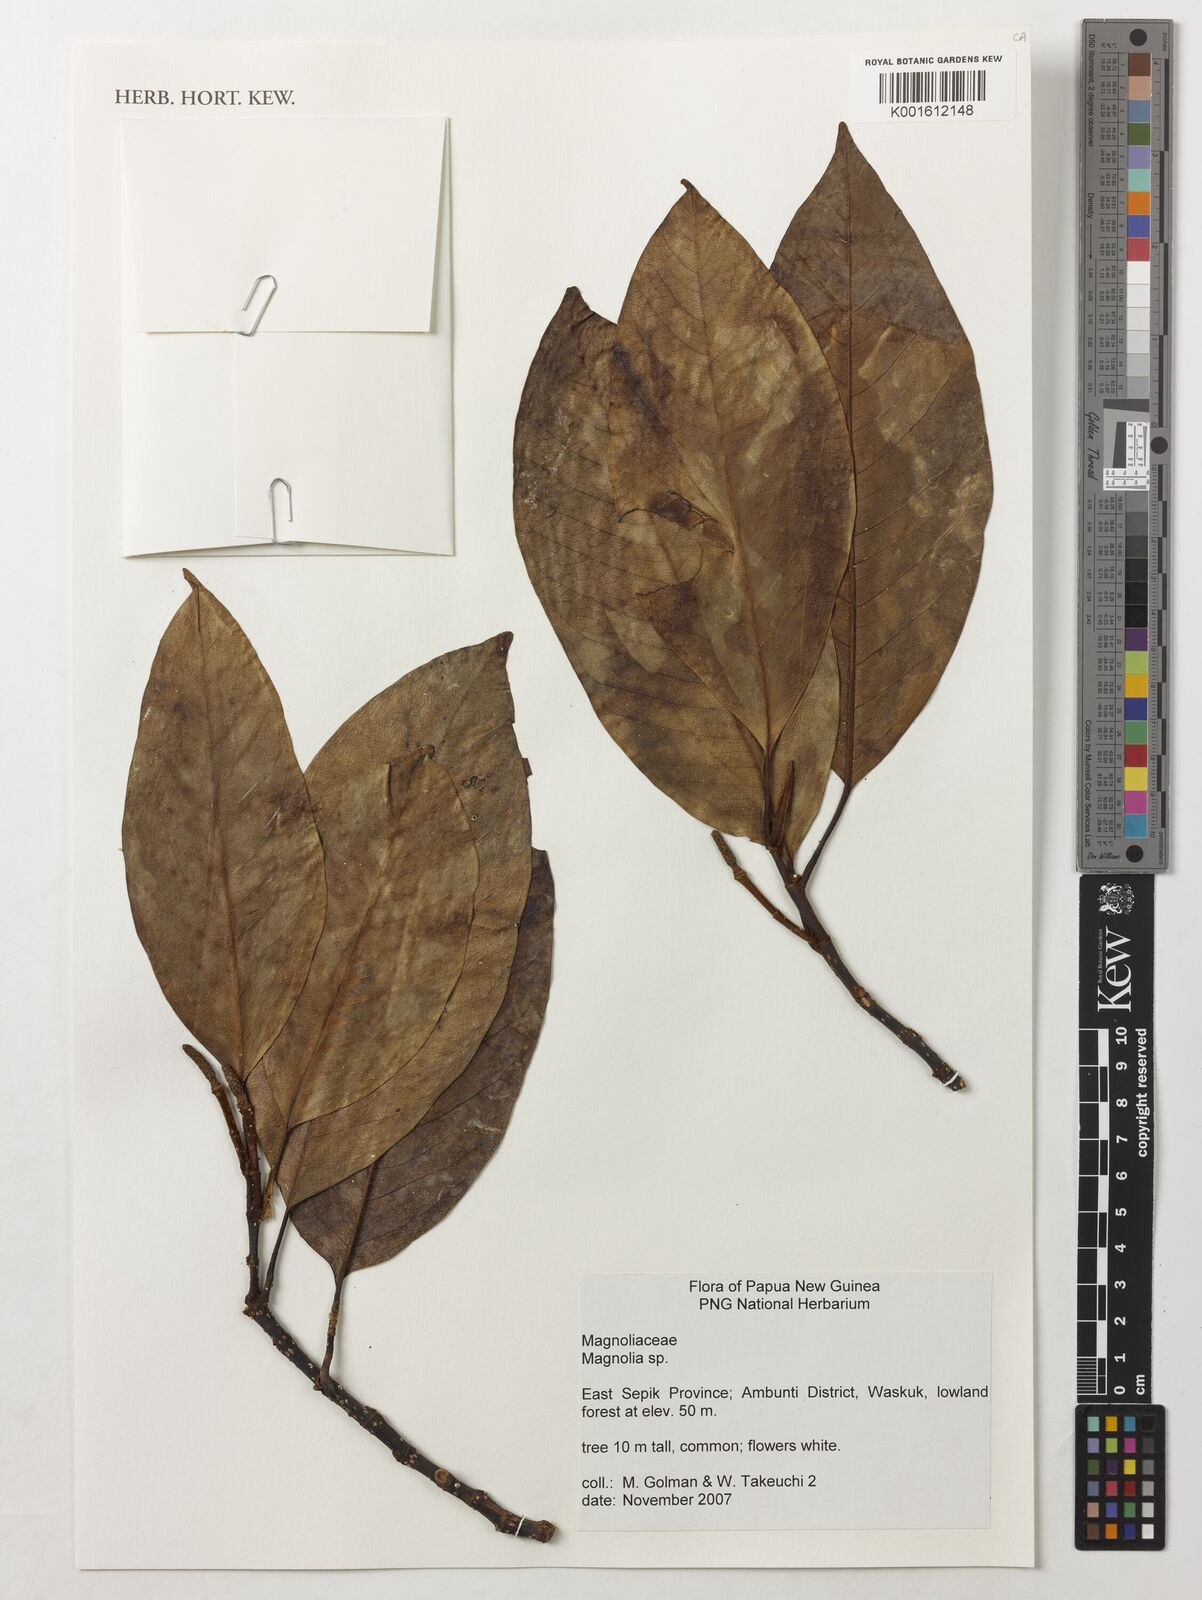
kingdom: Plantae
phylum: Tracheophyta
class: Magnoliopsida
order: Magnoliales
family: Magnoliaceae
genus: Magnolia
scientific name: Magnolia
